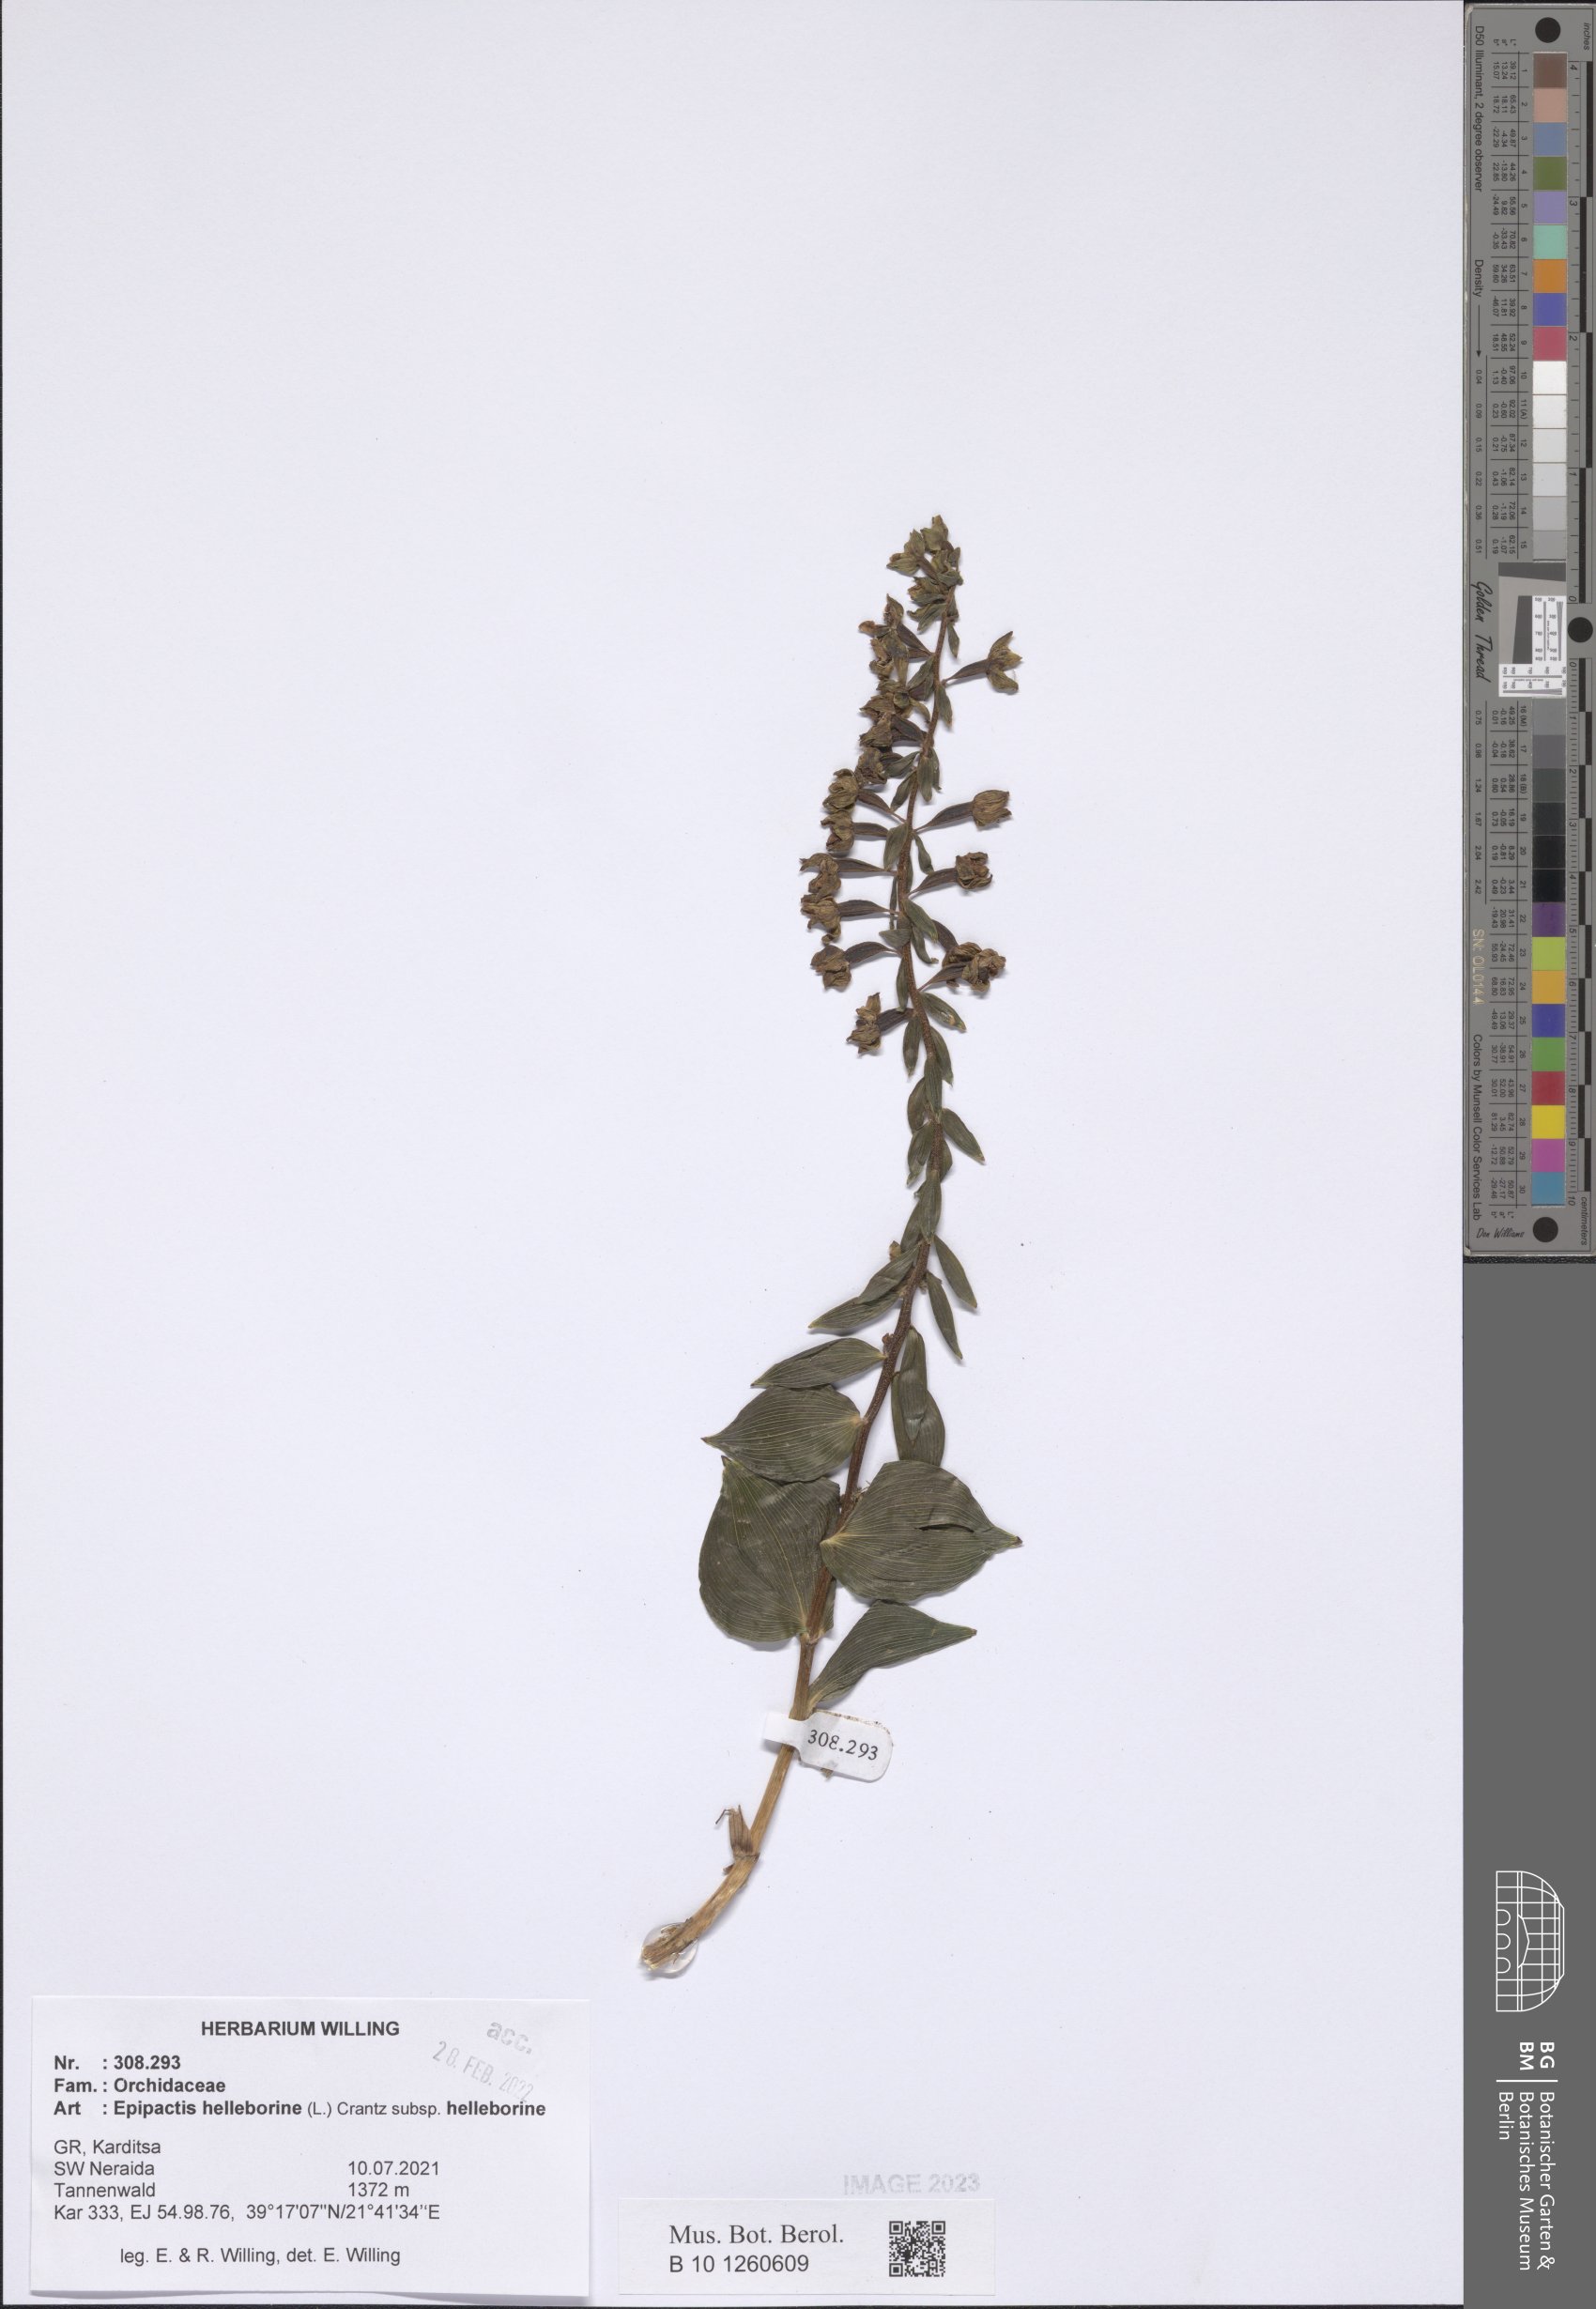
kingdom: Plantae
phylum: Tracheophyta
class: Liliopsida
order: Asparagales
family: Orchidaceae
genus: Epipactis
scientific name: Epipactis helleborine
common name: Broad-leaved helleborine
